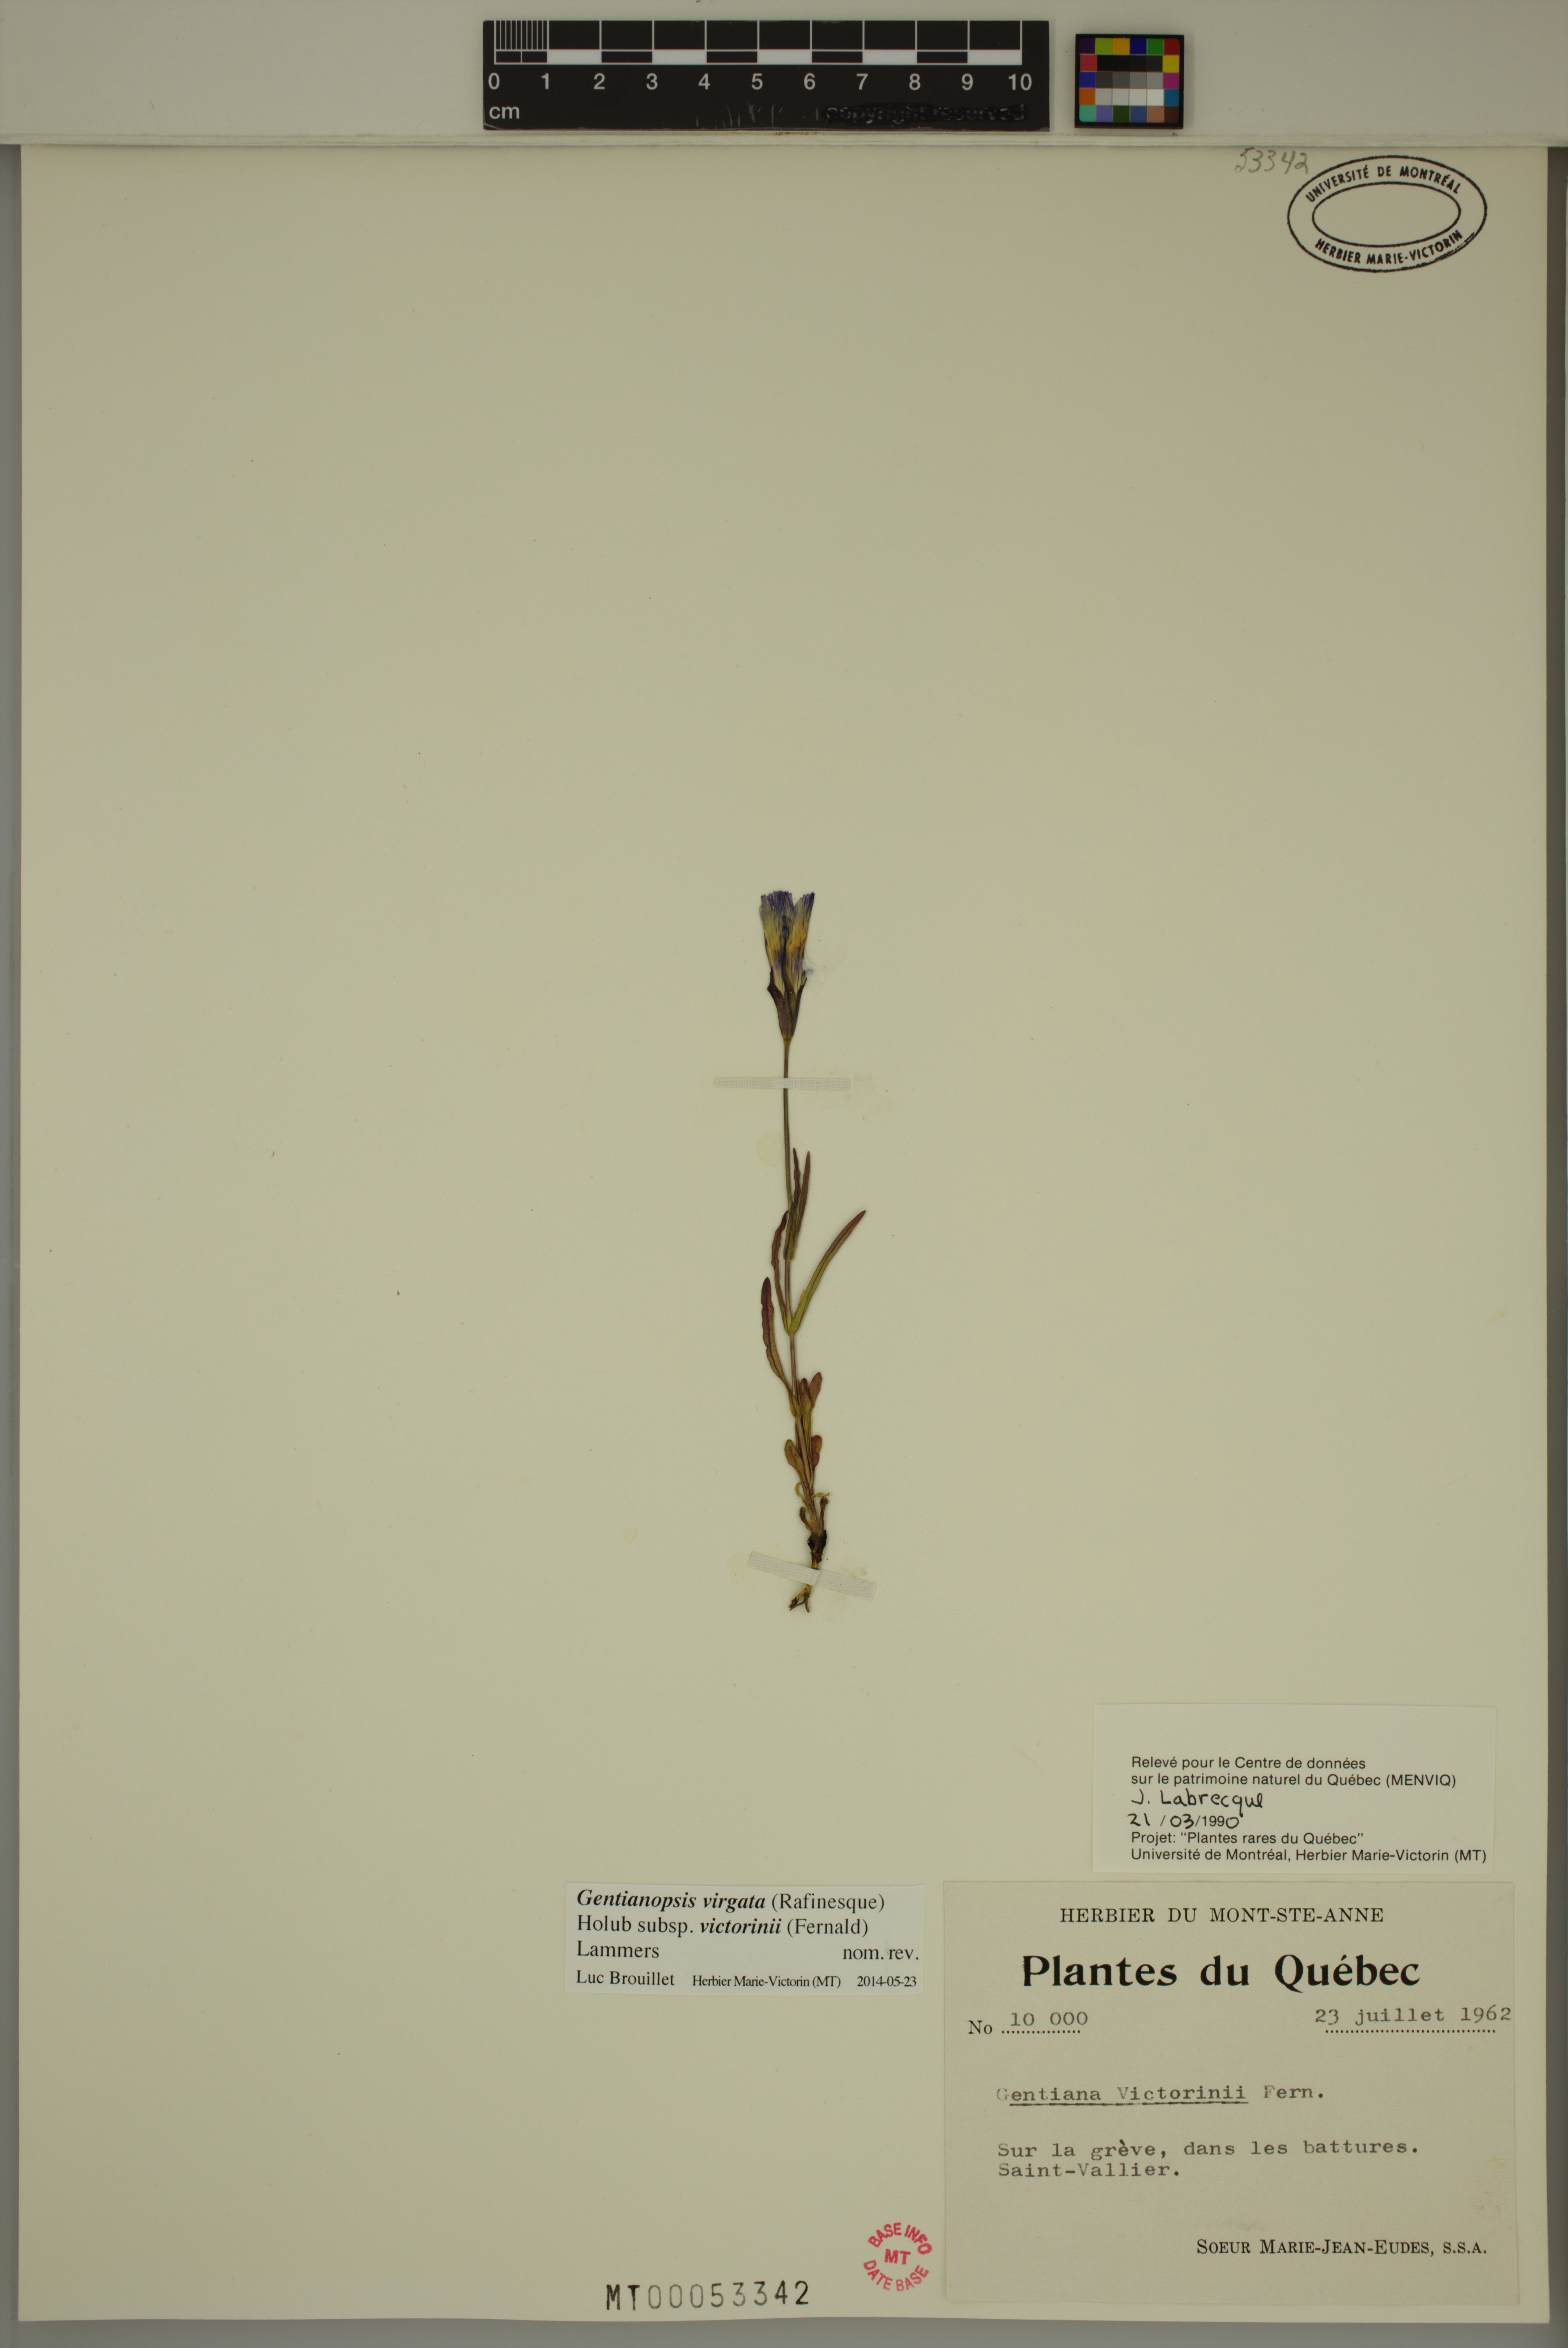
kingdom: Plantae
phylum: Tracheophyta
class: Magnoliopsida
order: Gentianales
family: Gentianaceae
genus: Gentianopsis
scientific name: Gentianopsis victorinii
